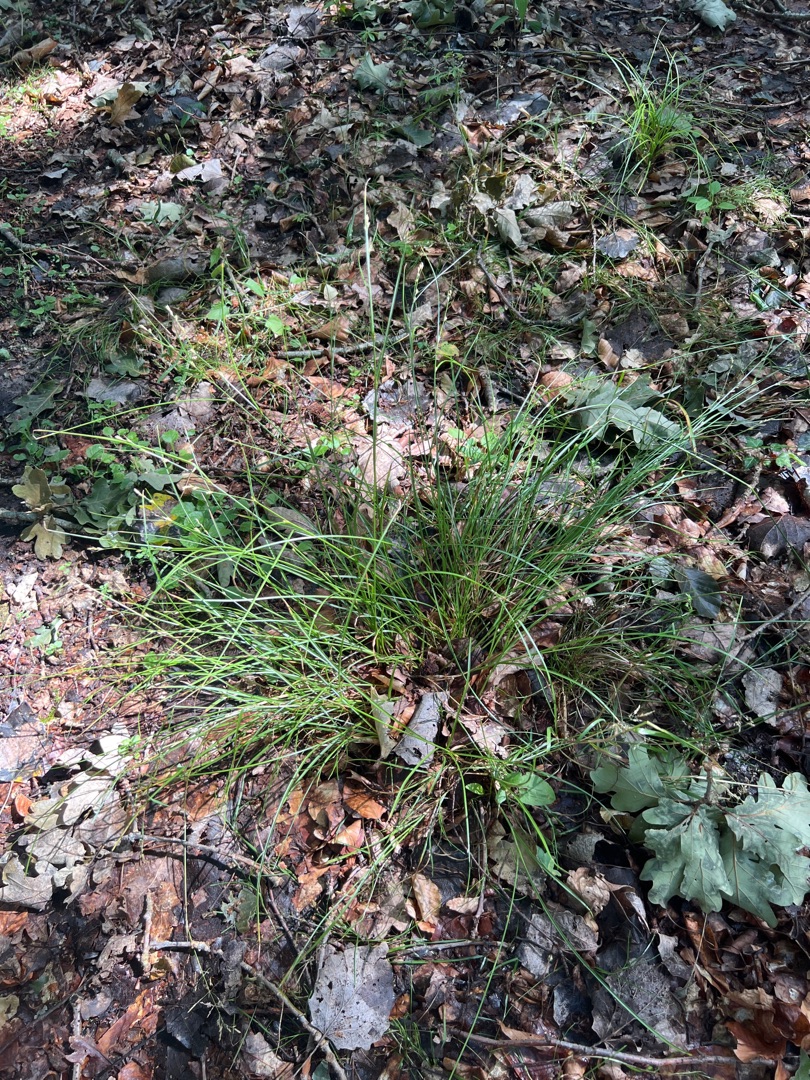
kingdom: Plantae
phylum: Tracheophyta
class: Liliopsida
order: Poales
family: Cyperaceae
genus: Carex
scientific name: Carex remota
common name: Akselblomstret star
